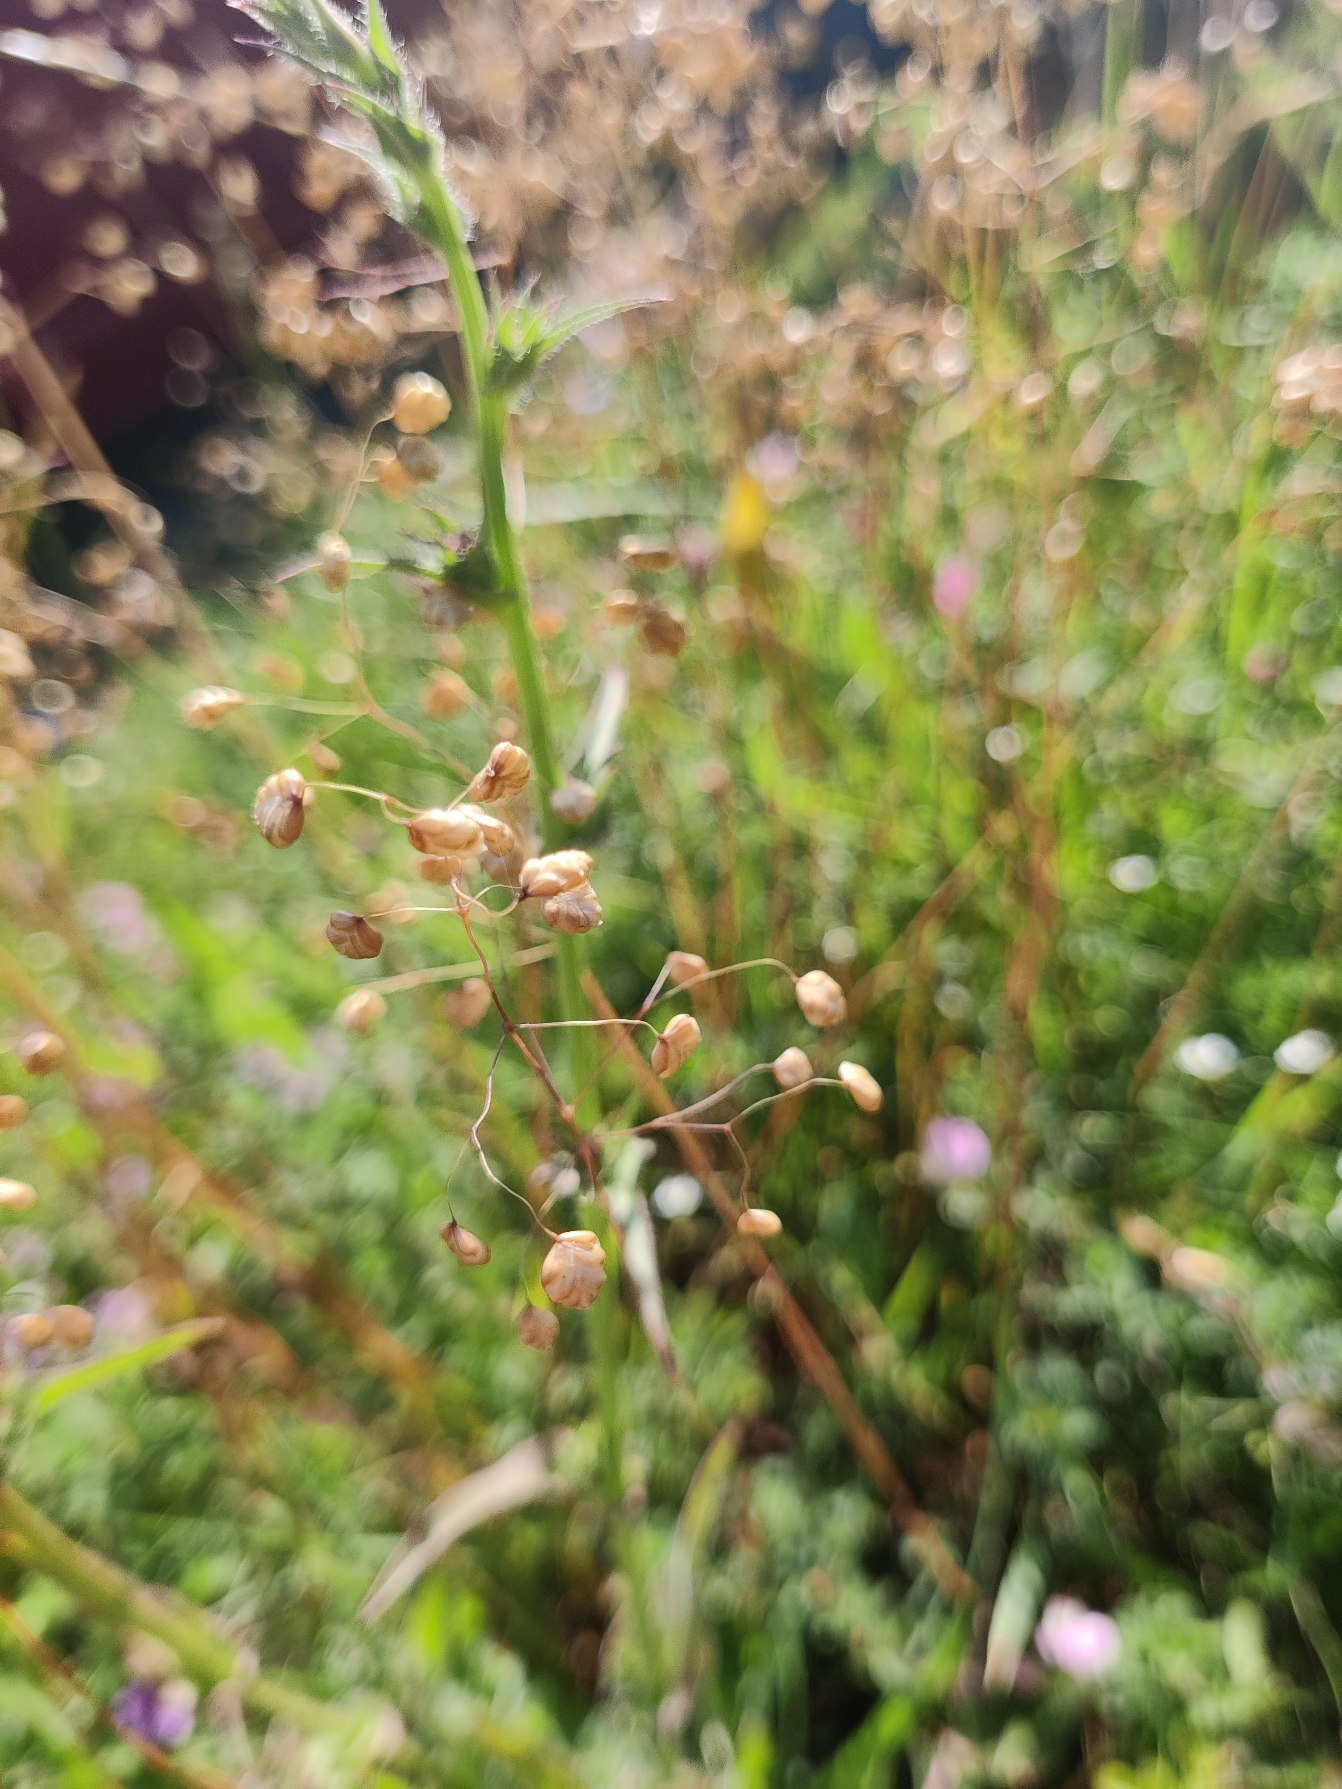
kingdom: Plantae
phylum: Tracheophyta
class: Liliopsida
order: Poales
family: Poaceae
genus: Briza
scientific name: Briza media
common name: Hjertegræs
